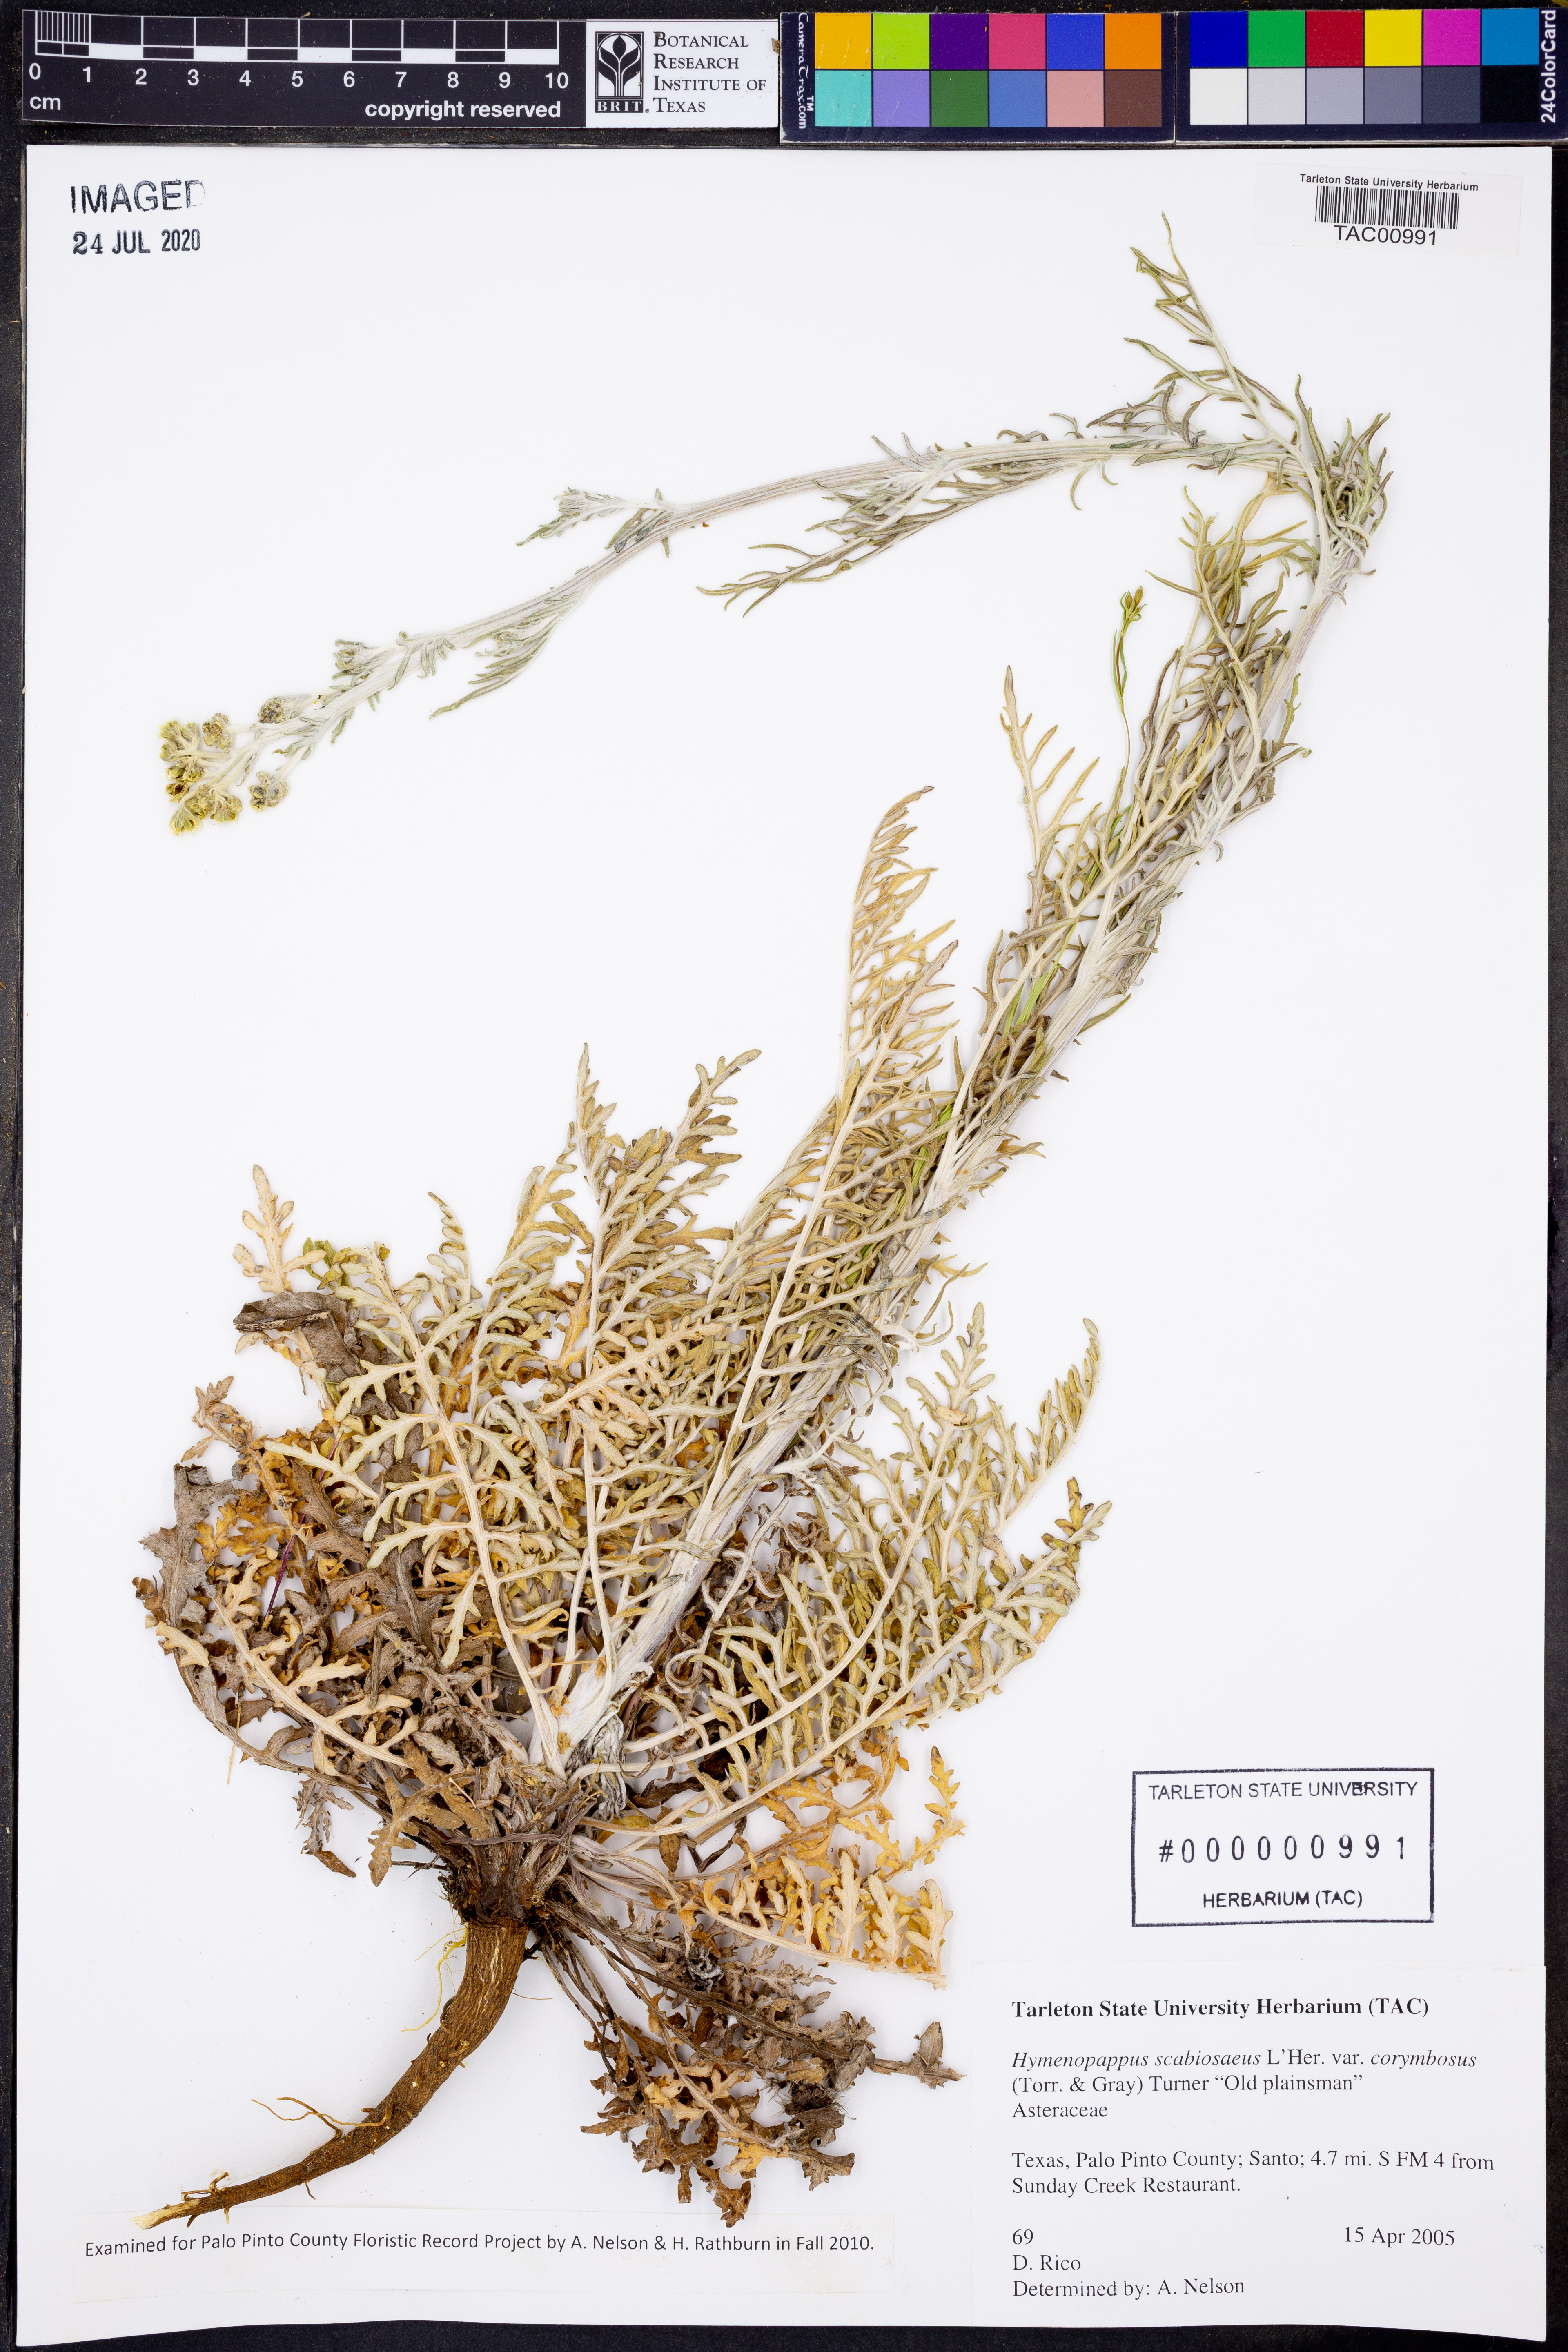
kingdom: Plantae
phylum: Tracheophyta
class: Magnoliopsida
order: Asterales
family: Asteraceae
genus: Hymenopappus
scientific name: Hymenopappus scabiosaeus
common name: Carolina woollywhite
